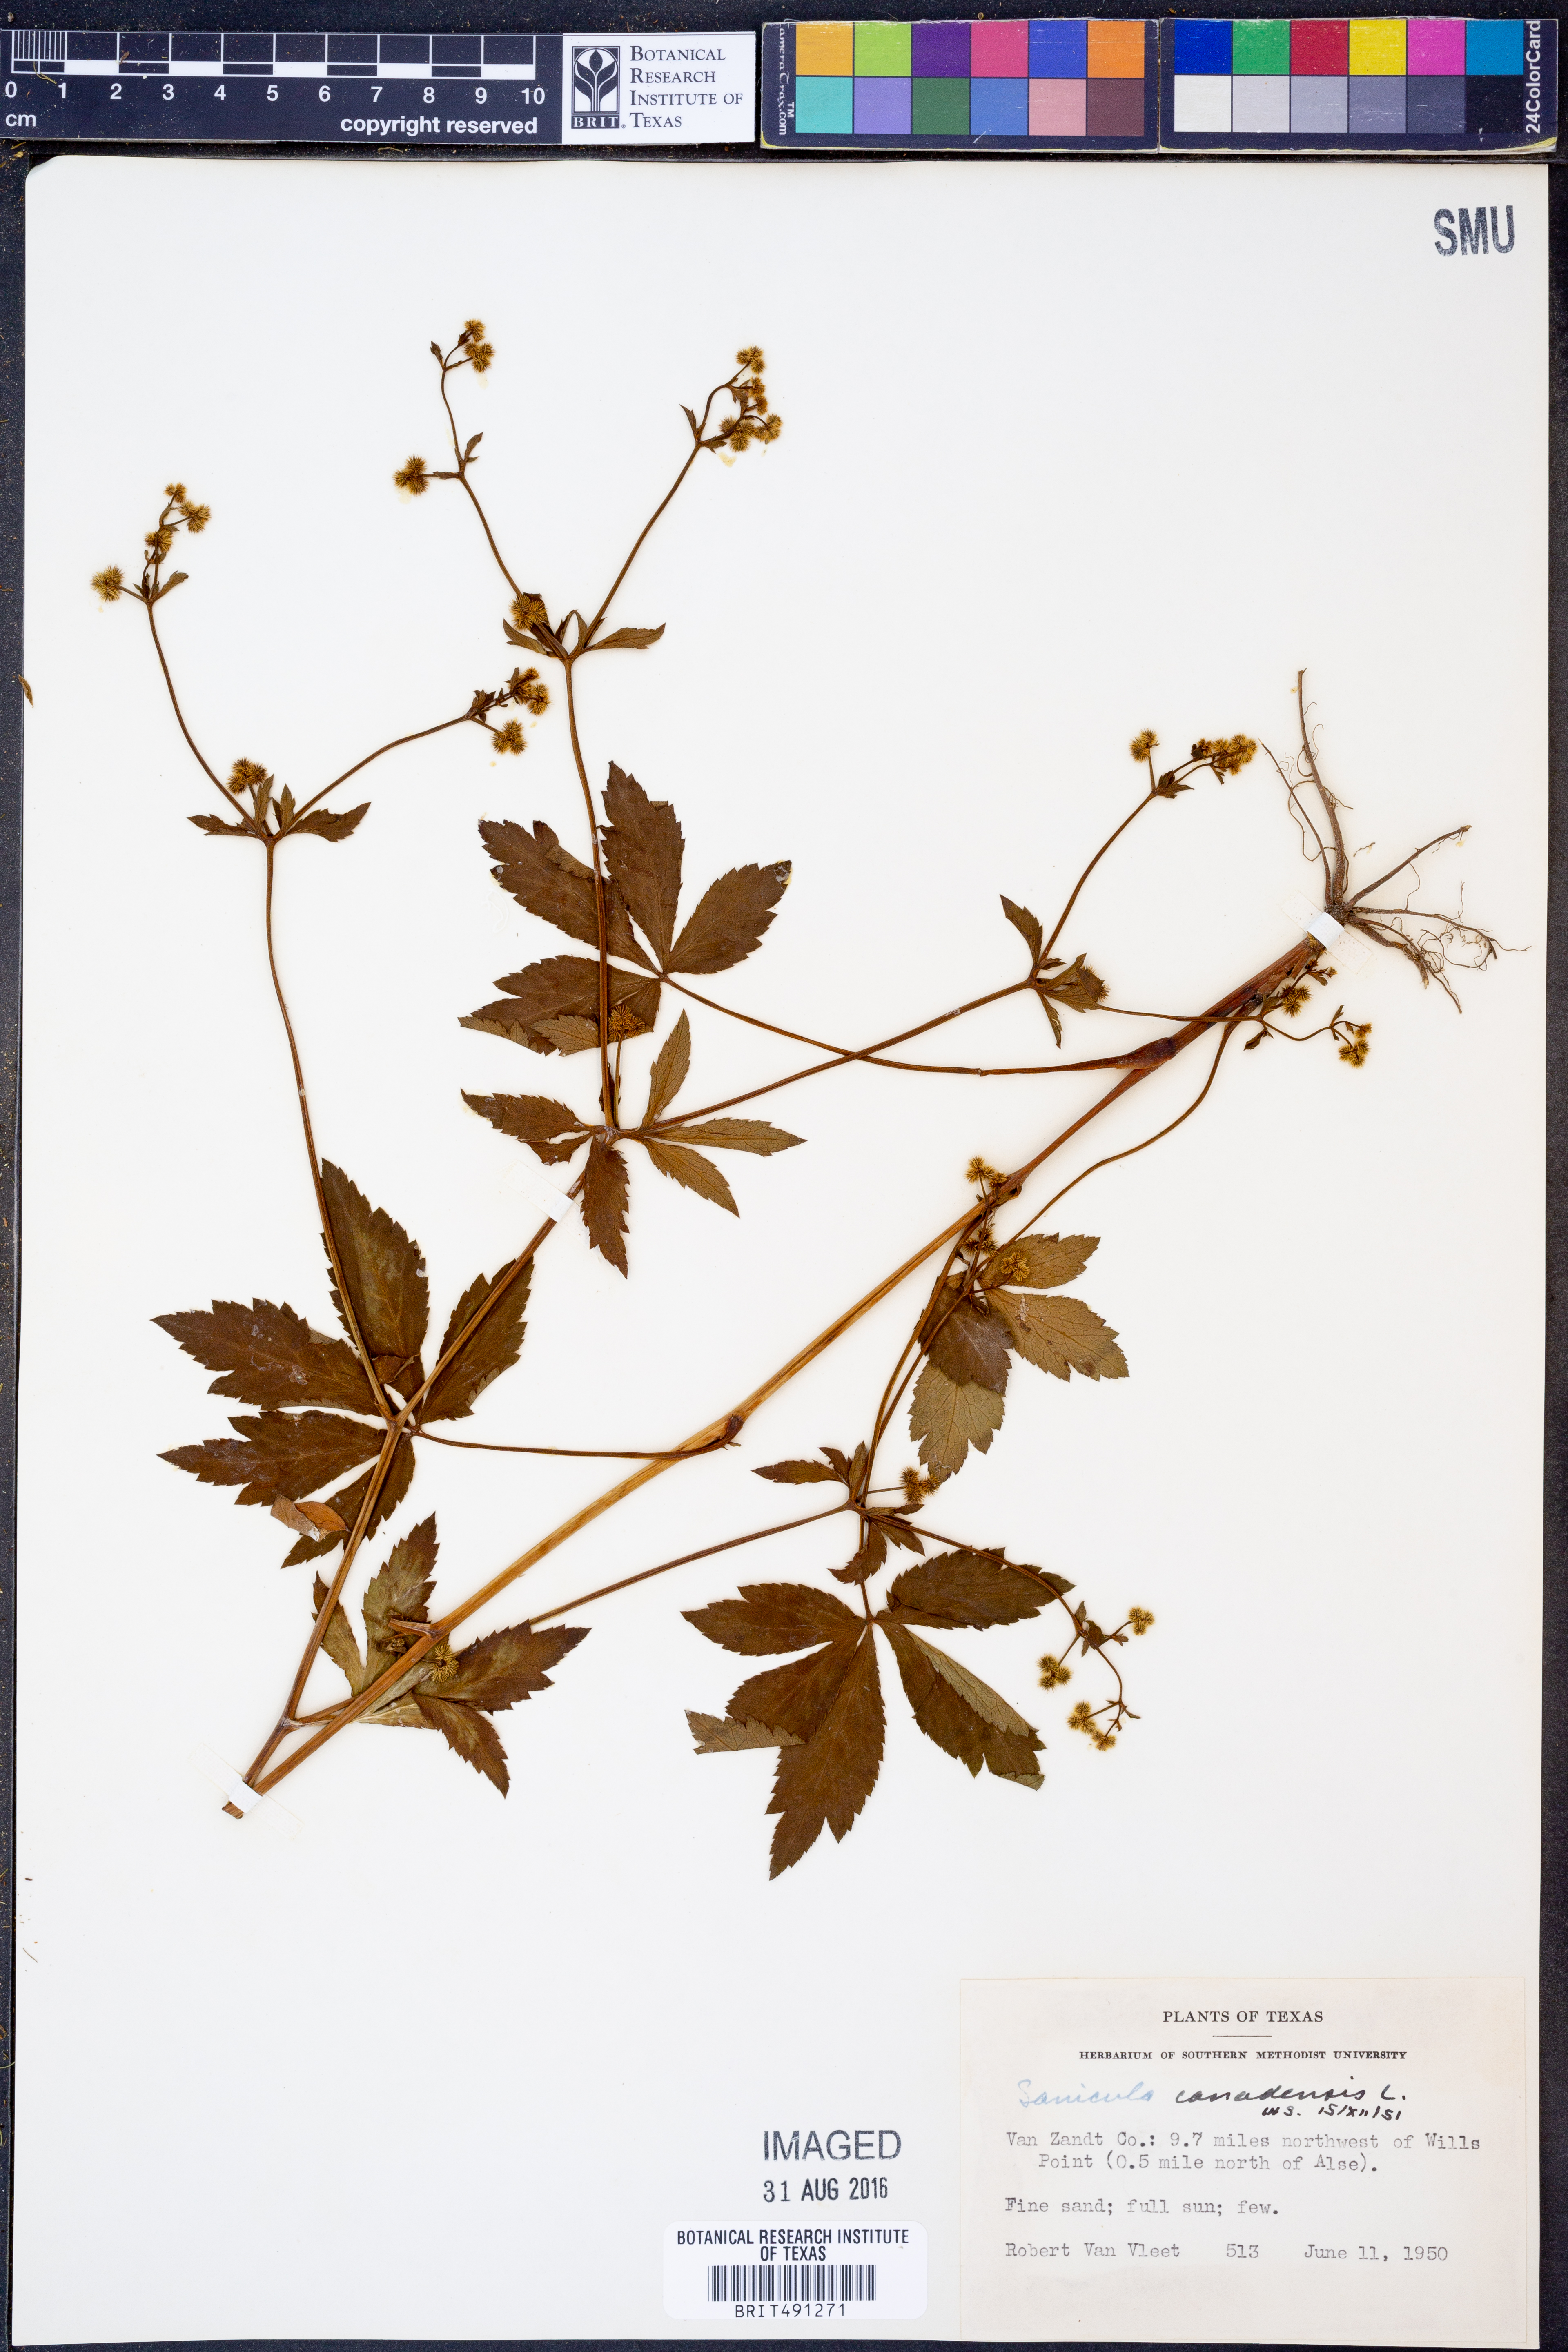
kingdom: Plantae
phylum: Tracheophyta
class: Magnoliopsida
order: Apiales
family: Apiaceae
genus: Sanicula
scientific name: Sanicula canadensis
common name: Canada sanicle
